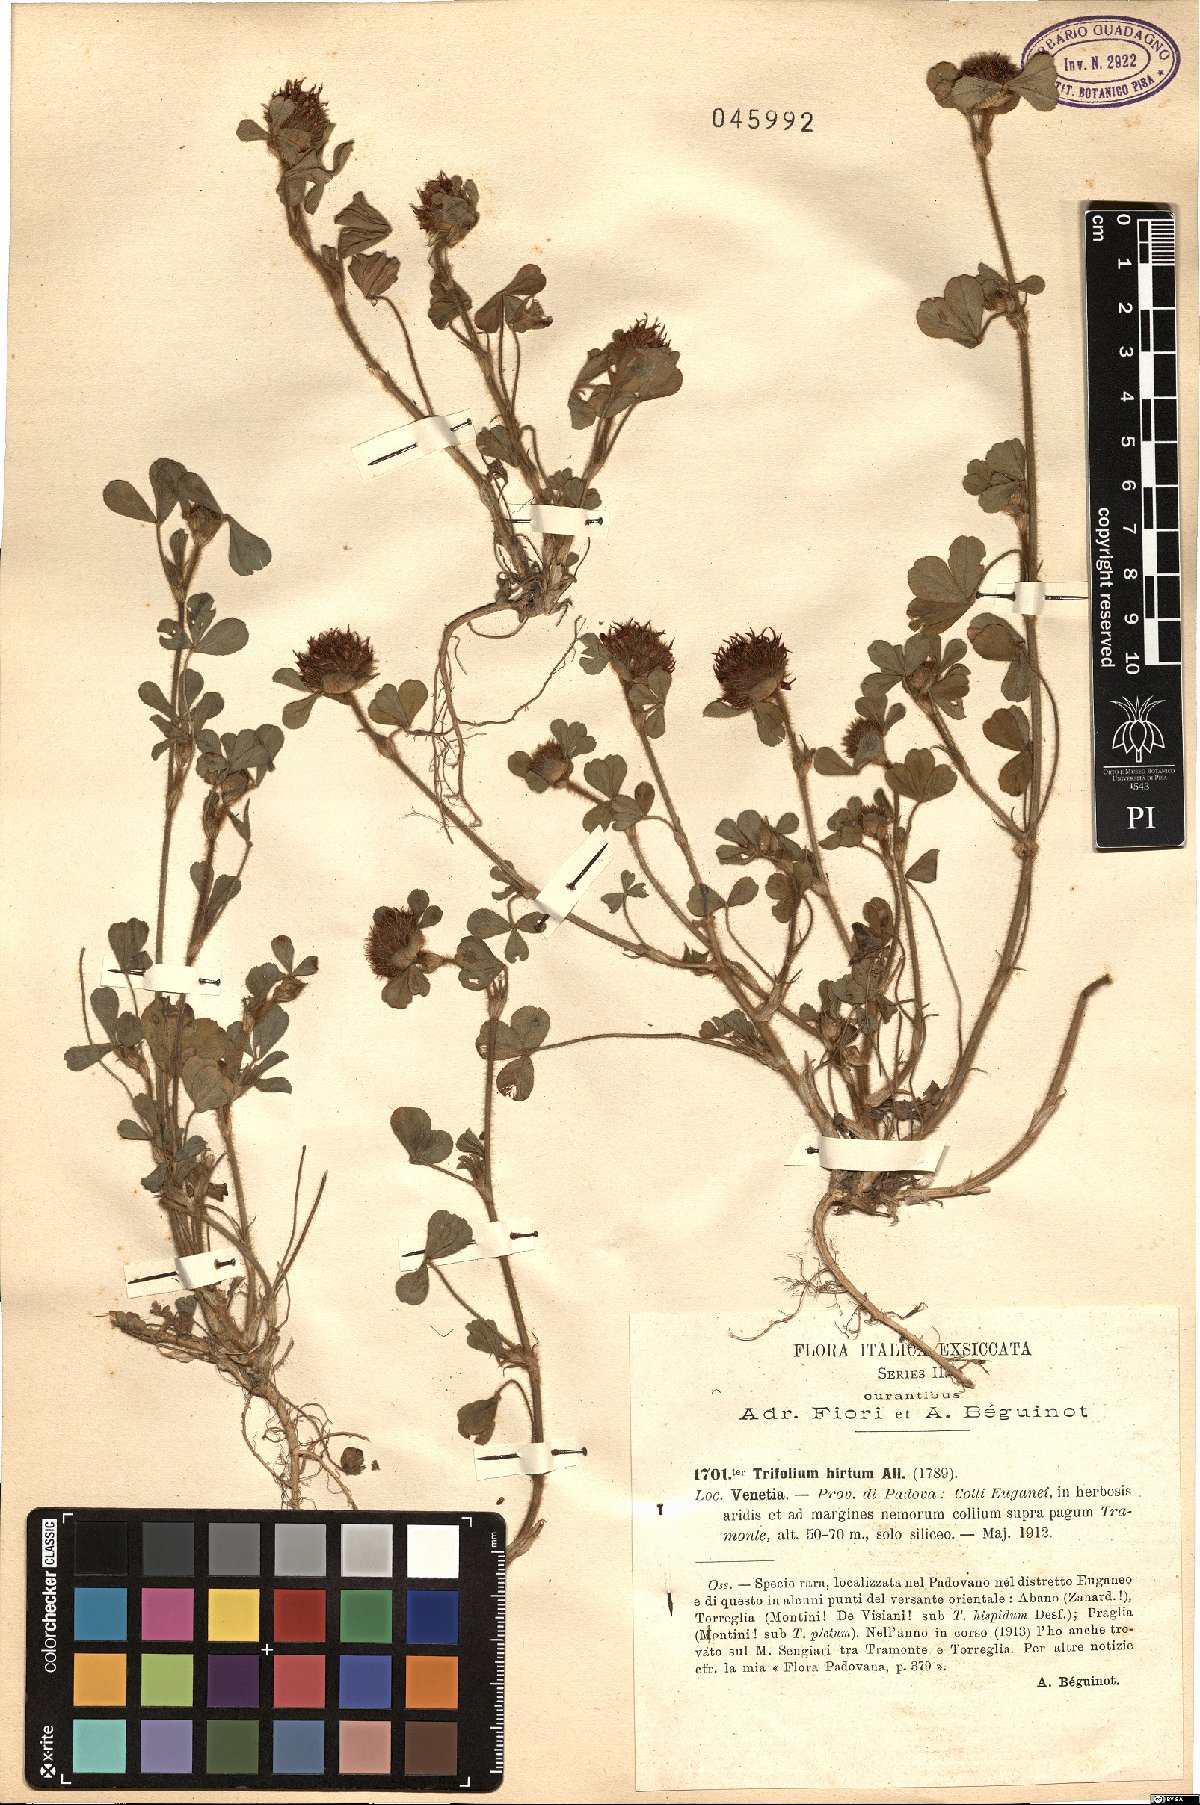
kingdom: Plantae
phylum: Tracheophyta
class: Magnoliopsida
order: Fabales
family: Fabaceae
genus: Trifolium
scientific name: Trifolium hirtum
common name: Rose clover
